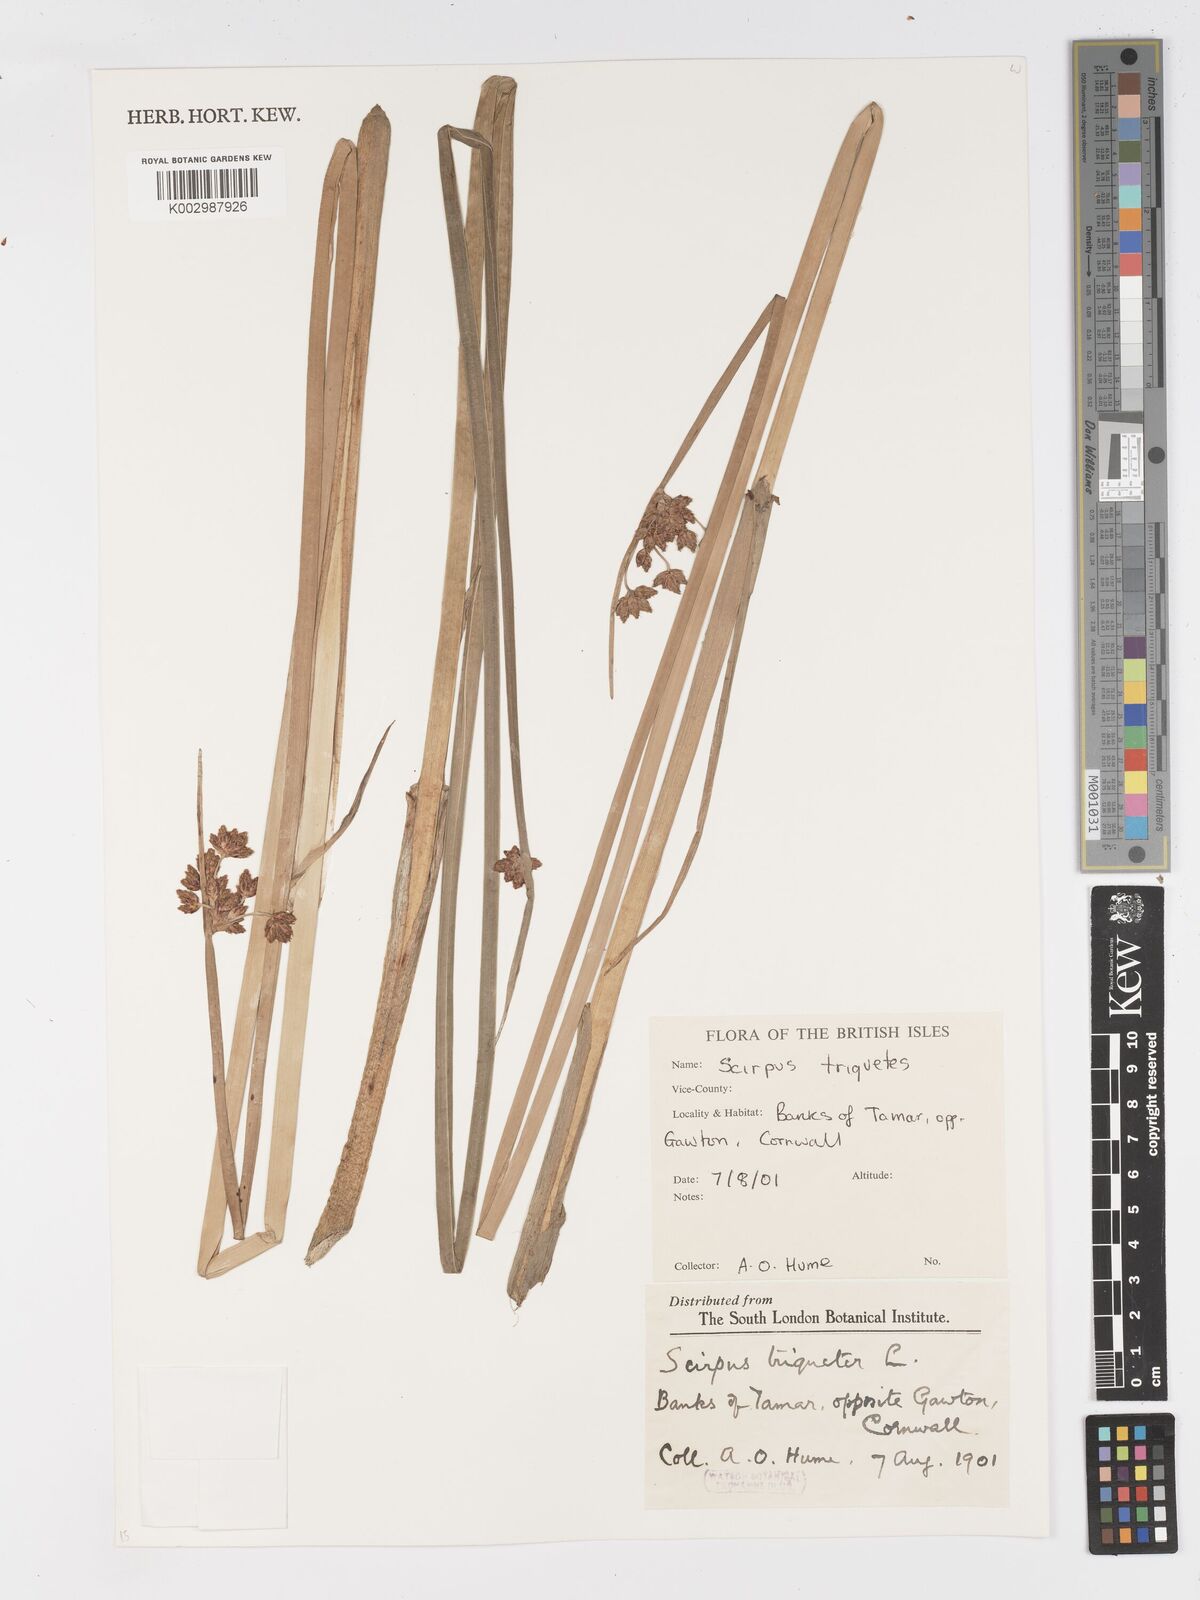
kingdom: Plantae
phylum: Tracheophyta
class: Liliopsida
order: Poales
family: Cyperaceae
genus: Schoenoplectus
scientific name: Schoenoplectus triqueter
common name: Triangular club-rush
